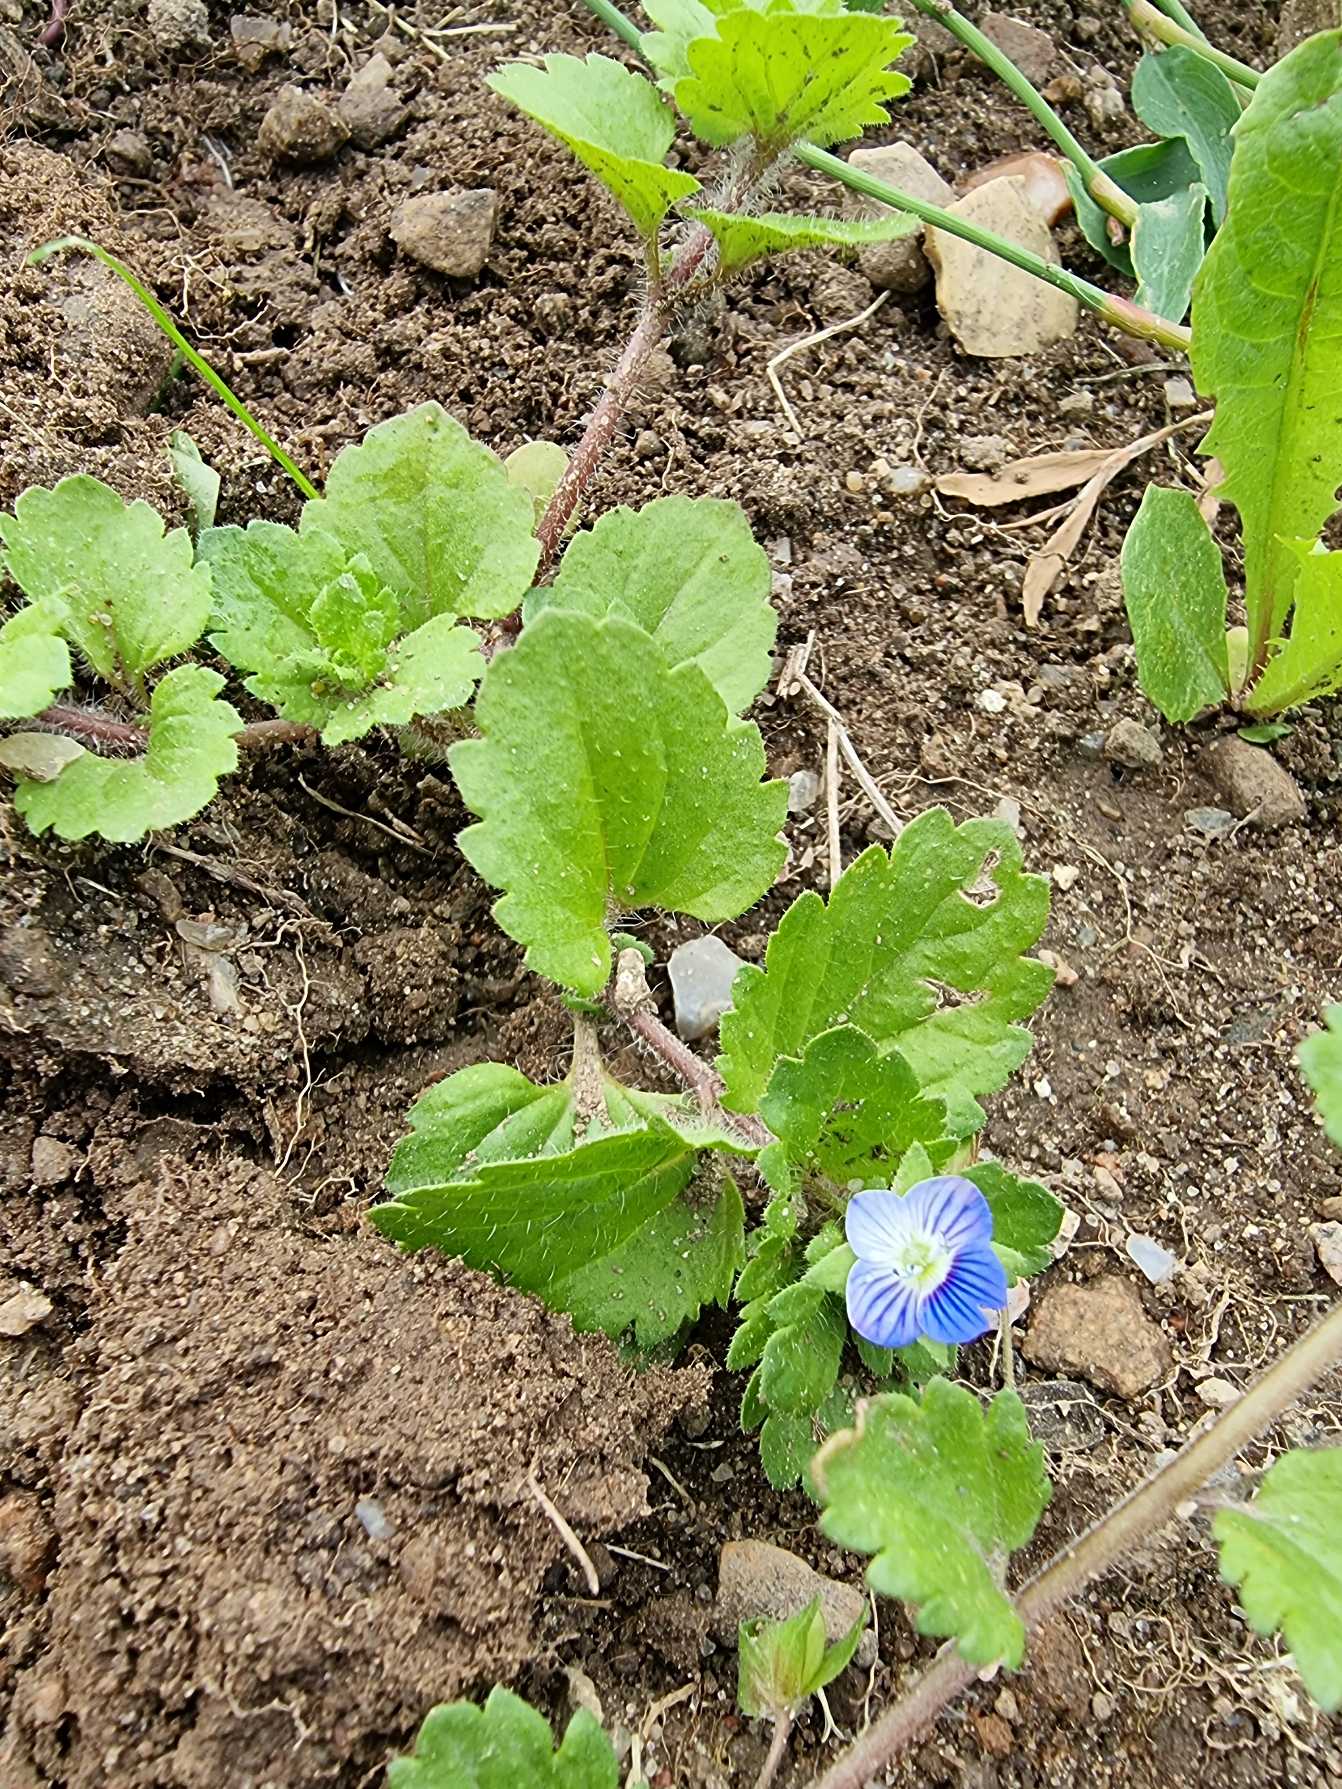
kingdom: Plantae
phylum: Tracheophyta
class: Magnoliopsida
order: Lamiales
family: Plantaginaceae
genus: Veronica
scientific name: Veronica persica
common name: Storkronet ærenpris
